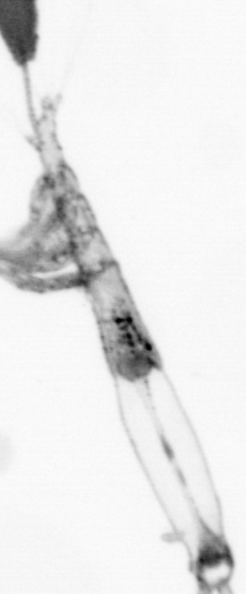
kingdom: Animalia
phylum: Arthropoda
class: Copepoda
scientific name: Copepoda
